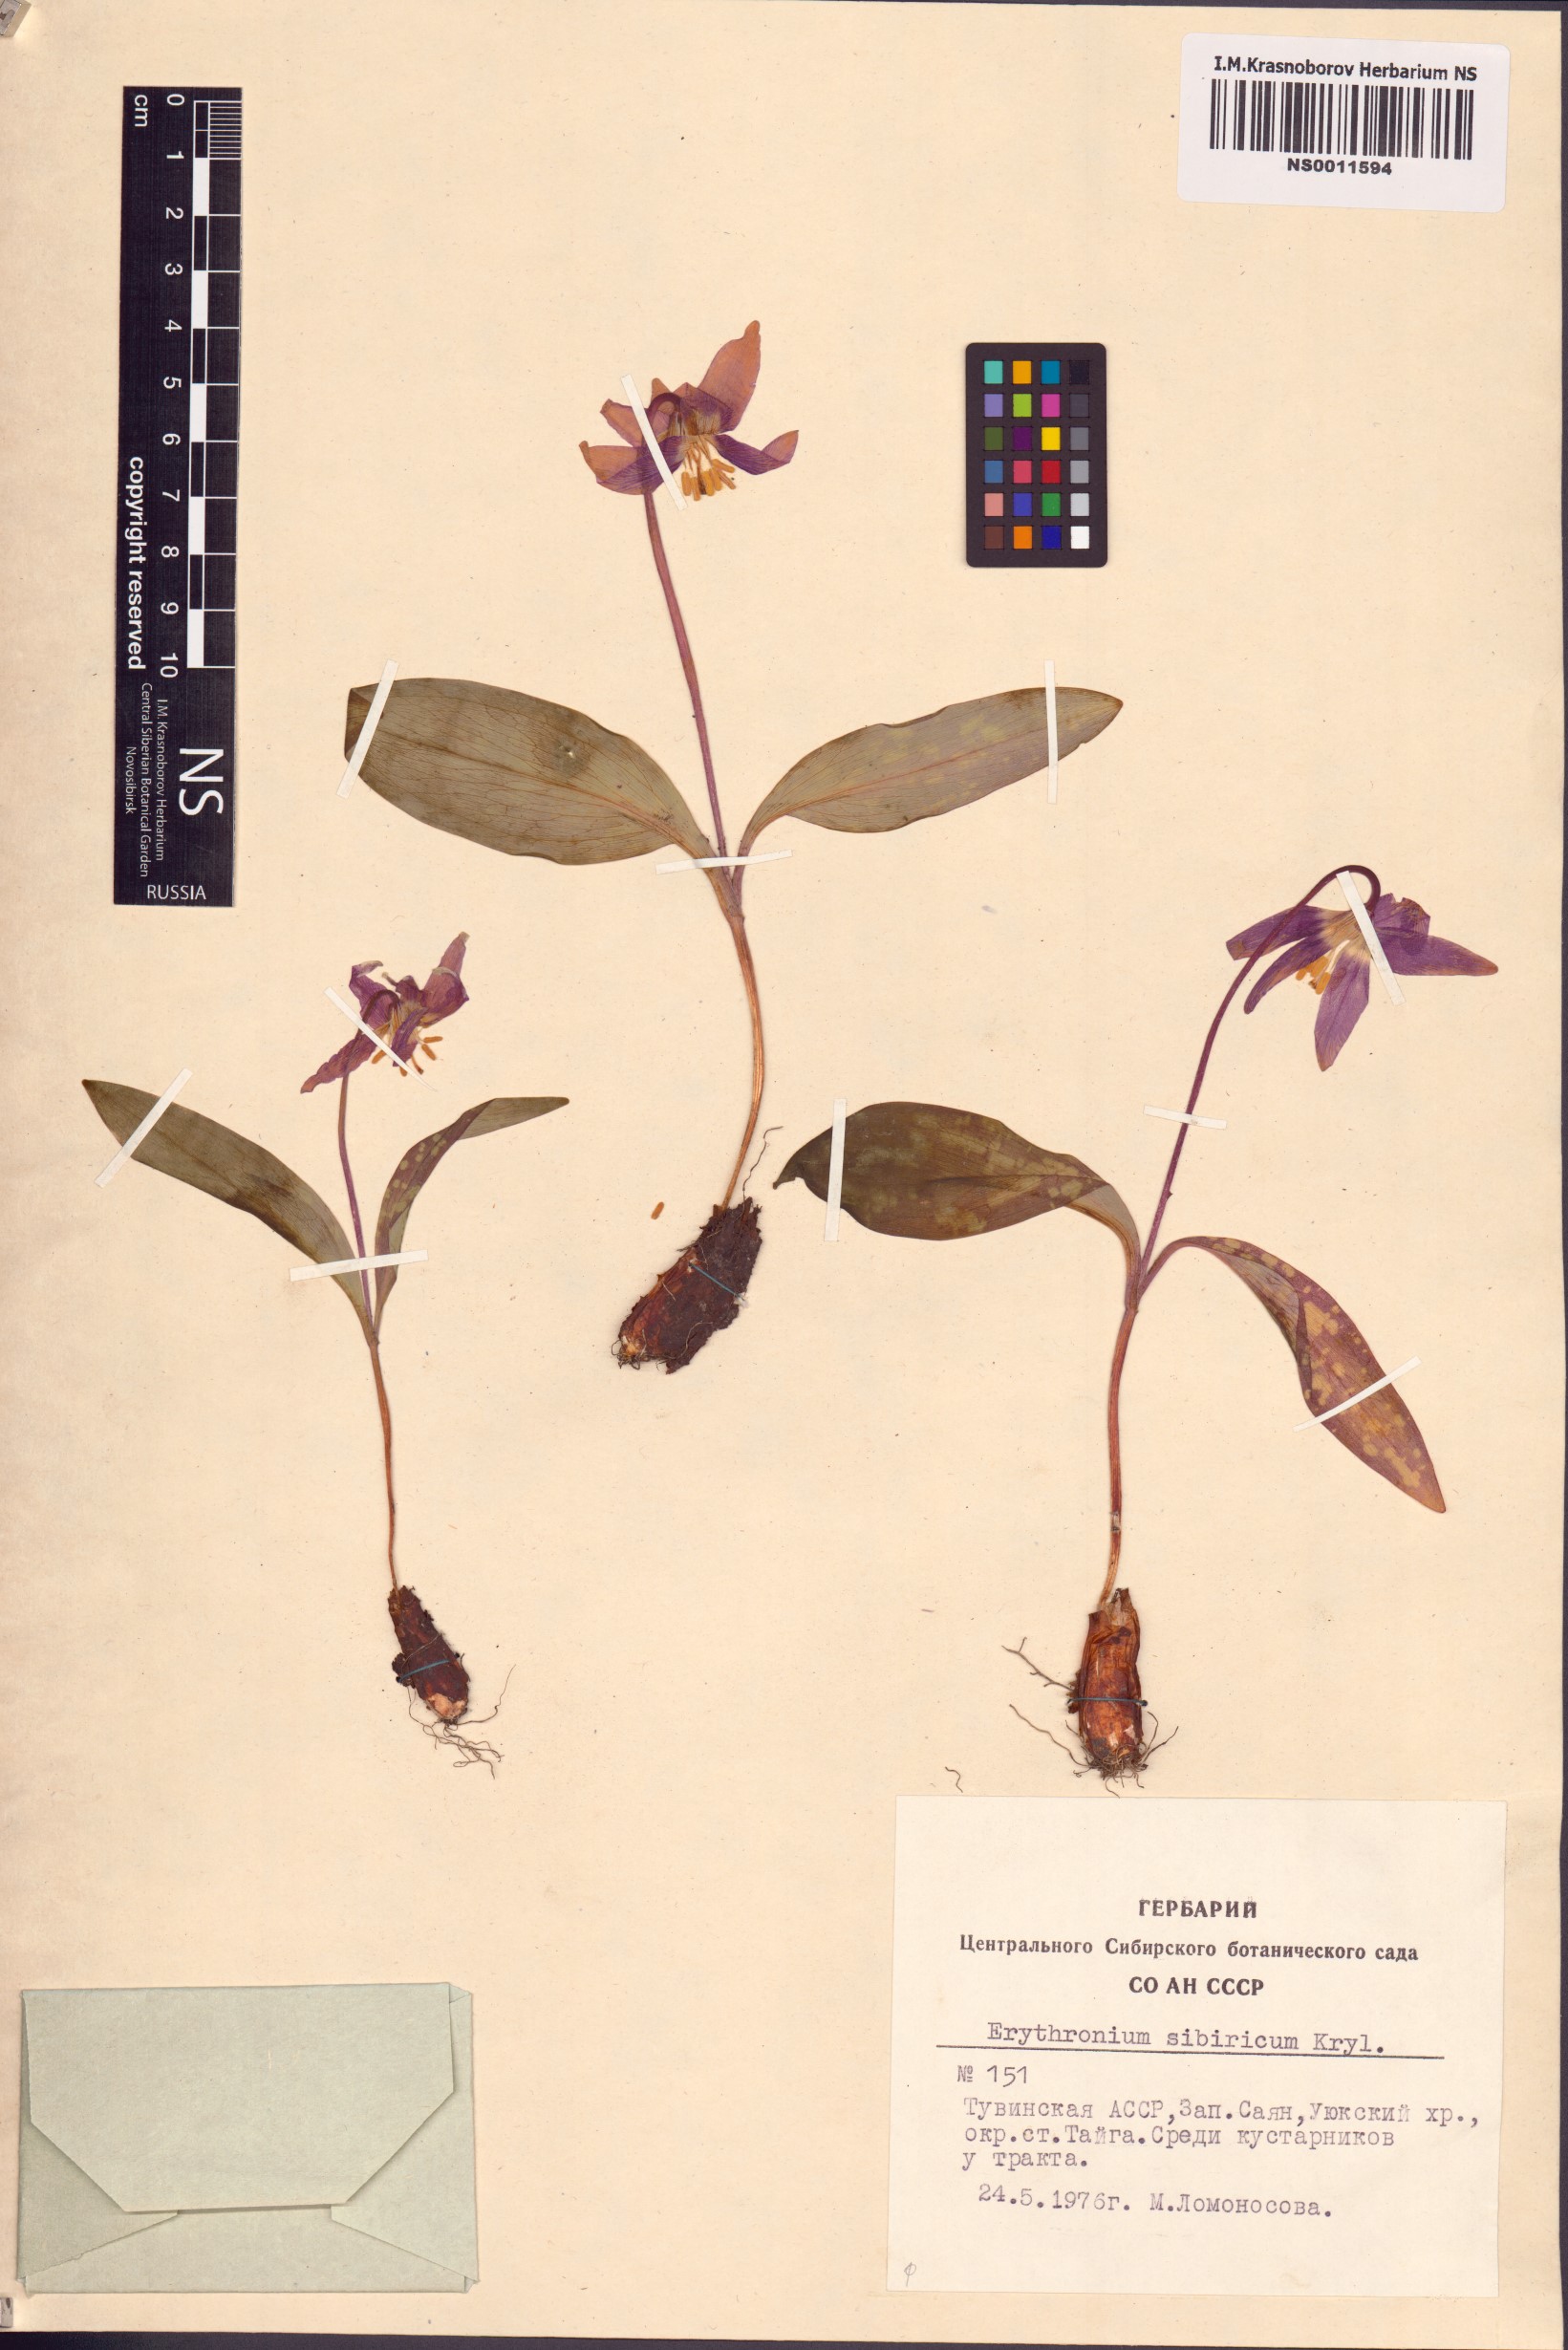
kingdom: Plantae
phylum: Tracheophyta
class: Liliopsida
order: Liliales
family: Liliaceae
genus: Erythronium
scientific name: Erythronium sibiricum
